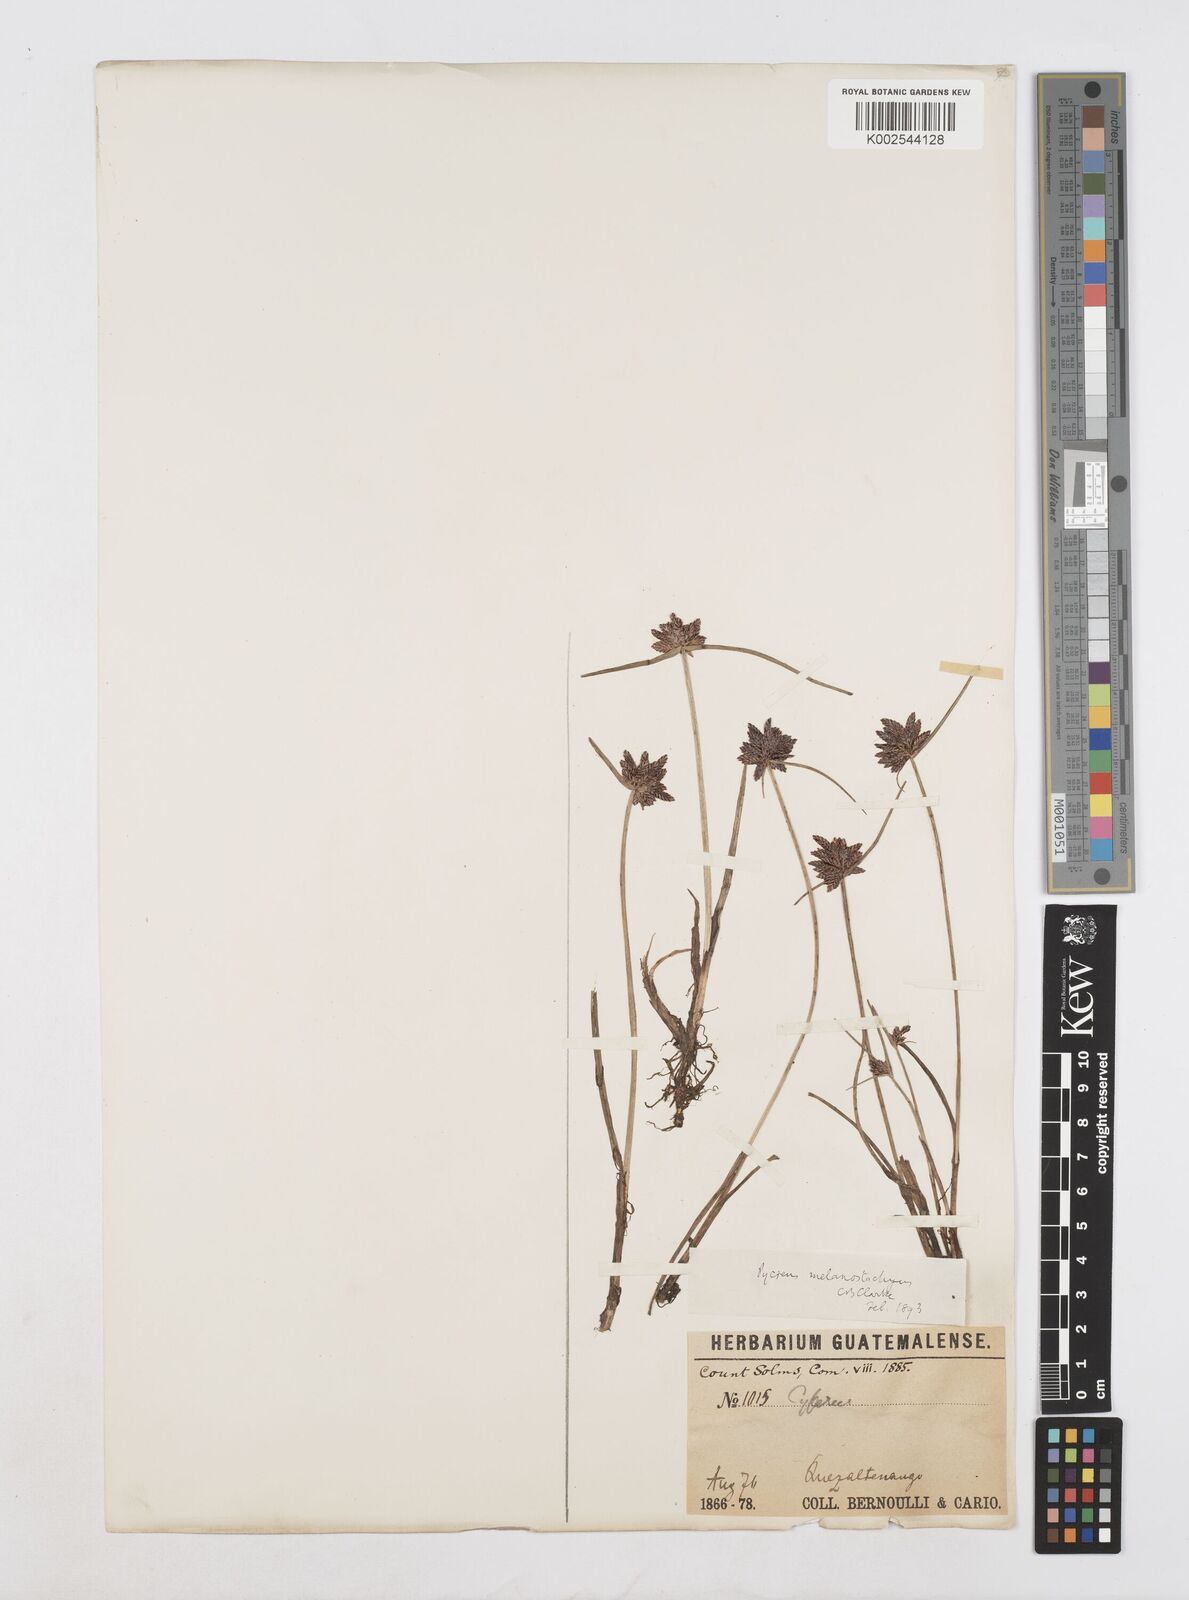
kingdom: Plantae
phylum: Tracheophyta
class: Liliopsida
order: Poales
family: Cyperaceae
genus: Cyperus
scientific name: Cyperus melanostachyus
